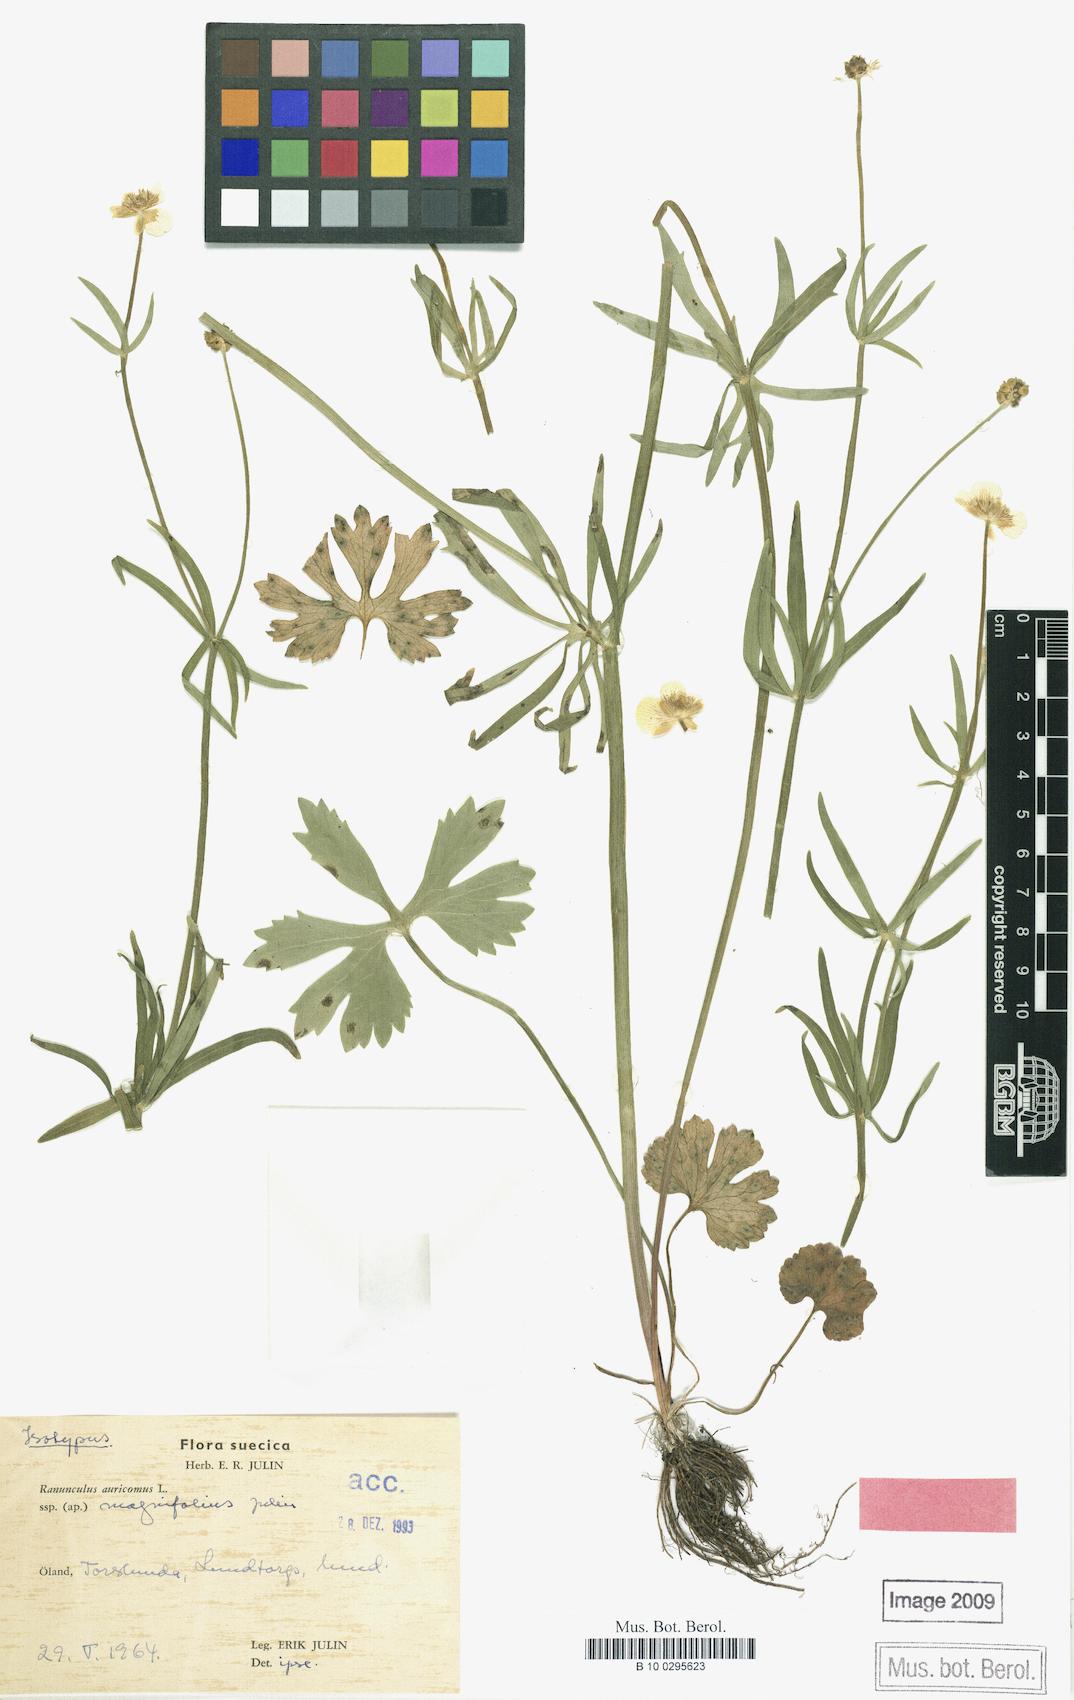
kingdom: Plantae
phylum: Tracheophyta
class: Magnoliopsida
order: Ranunculales
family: Ranunculaceae
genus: Ranunculus
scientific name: Ranunculus magnifolius
